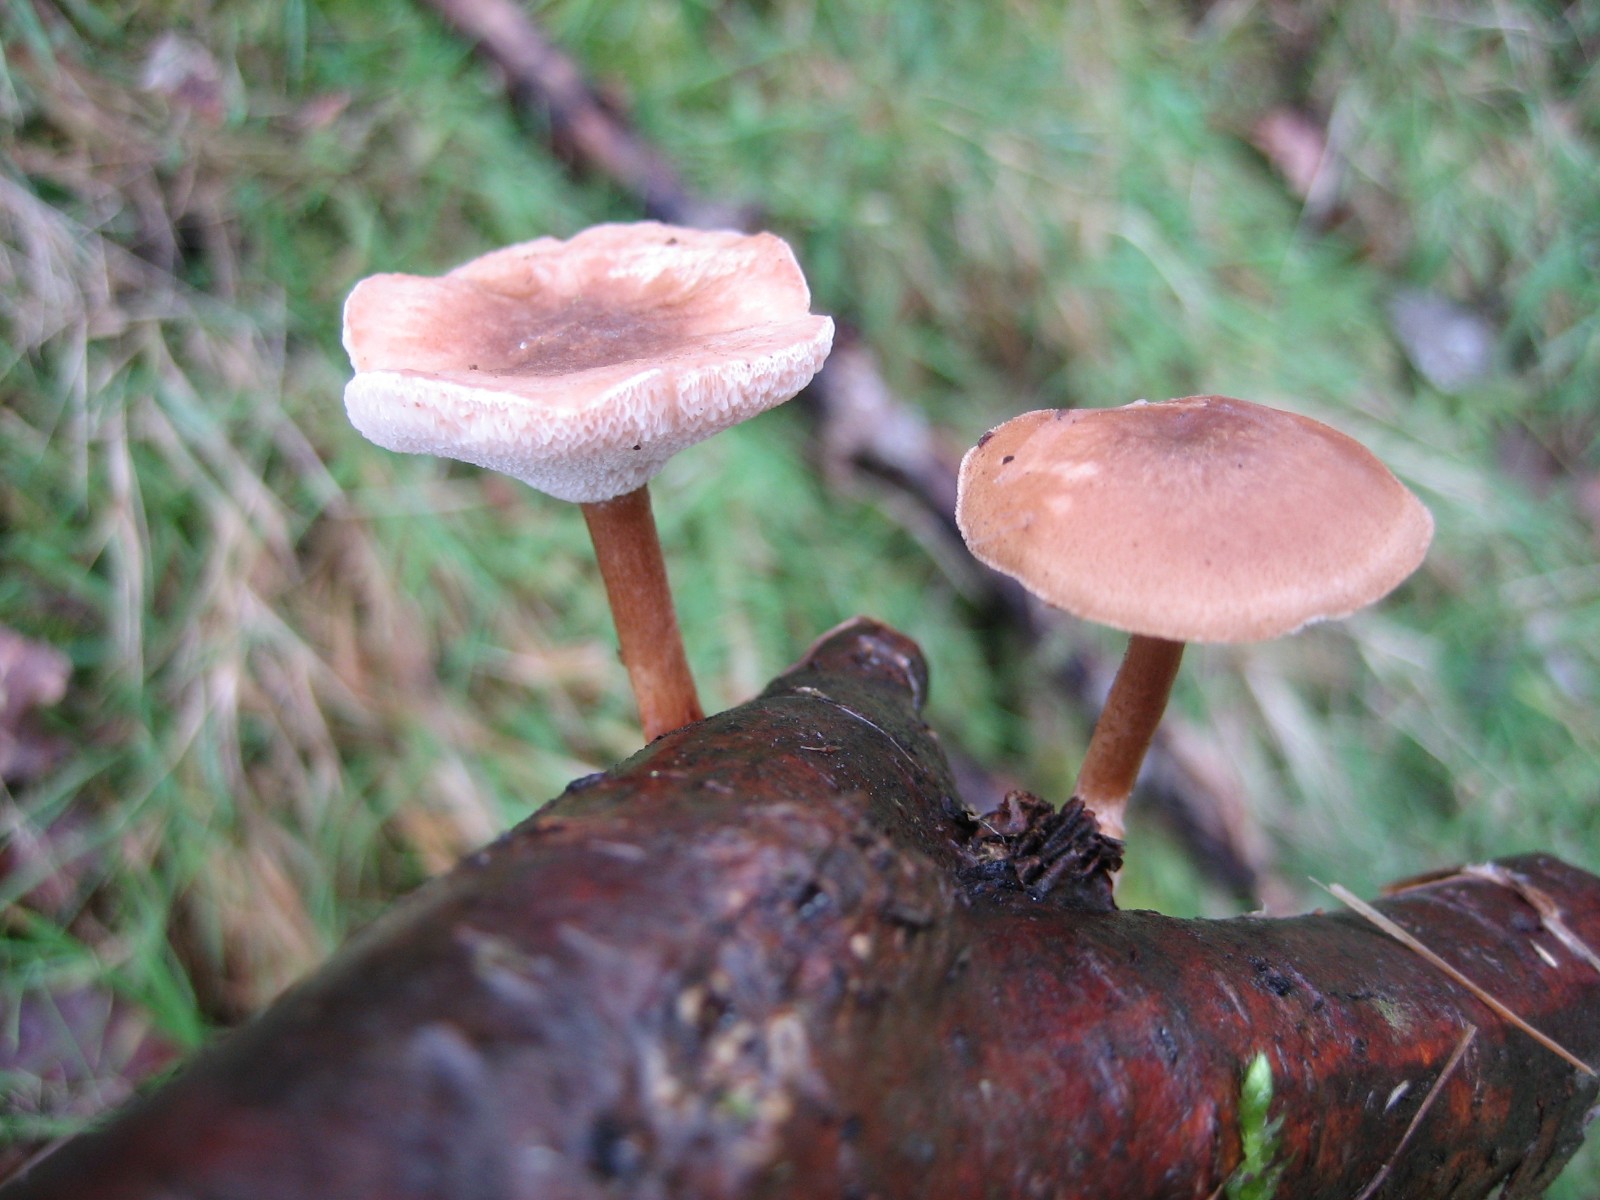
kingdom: Fungi
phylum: Basidiomycota
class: Agaricomycetes
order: Polyporales
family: Polyporaceae
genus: Lentinus
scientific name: Lentinus brumalis
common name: vinter-stilkporesvamp
